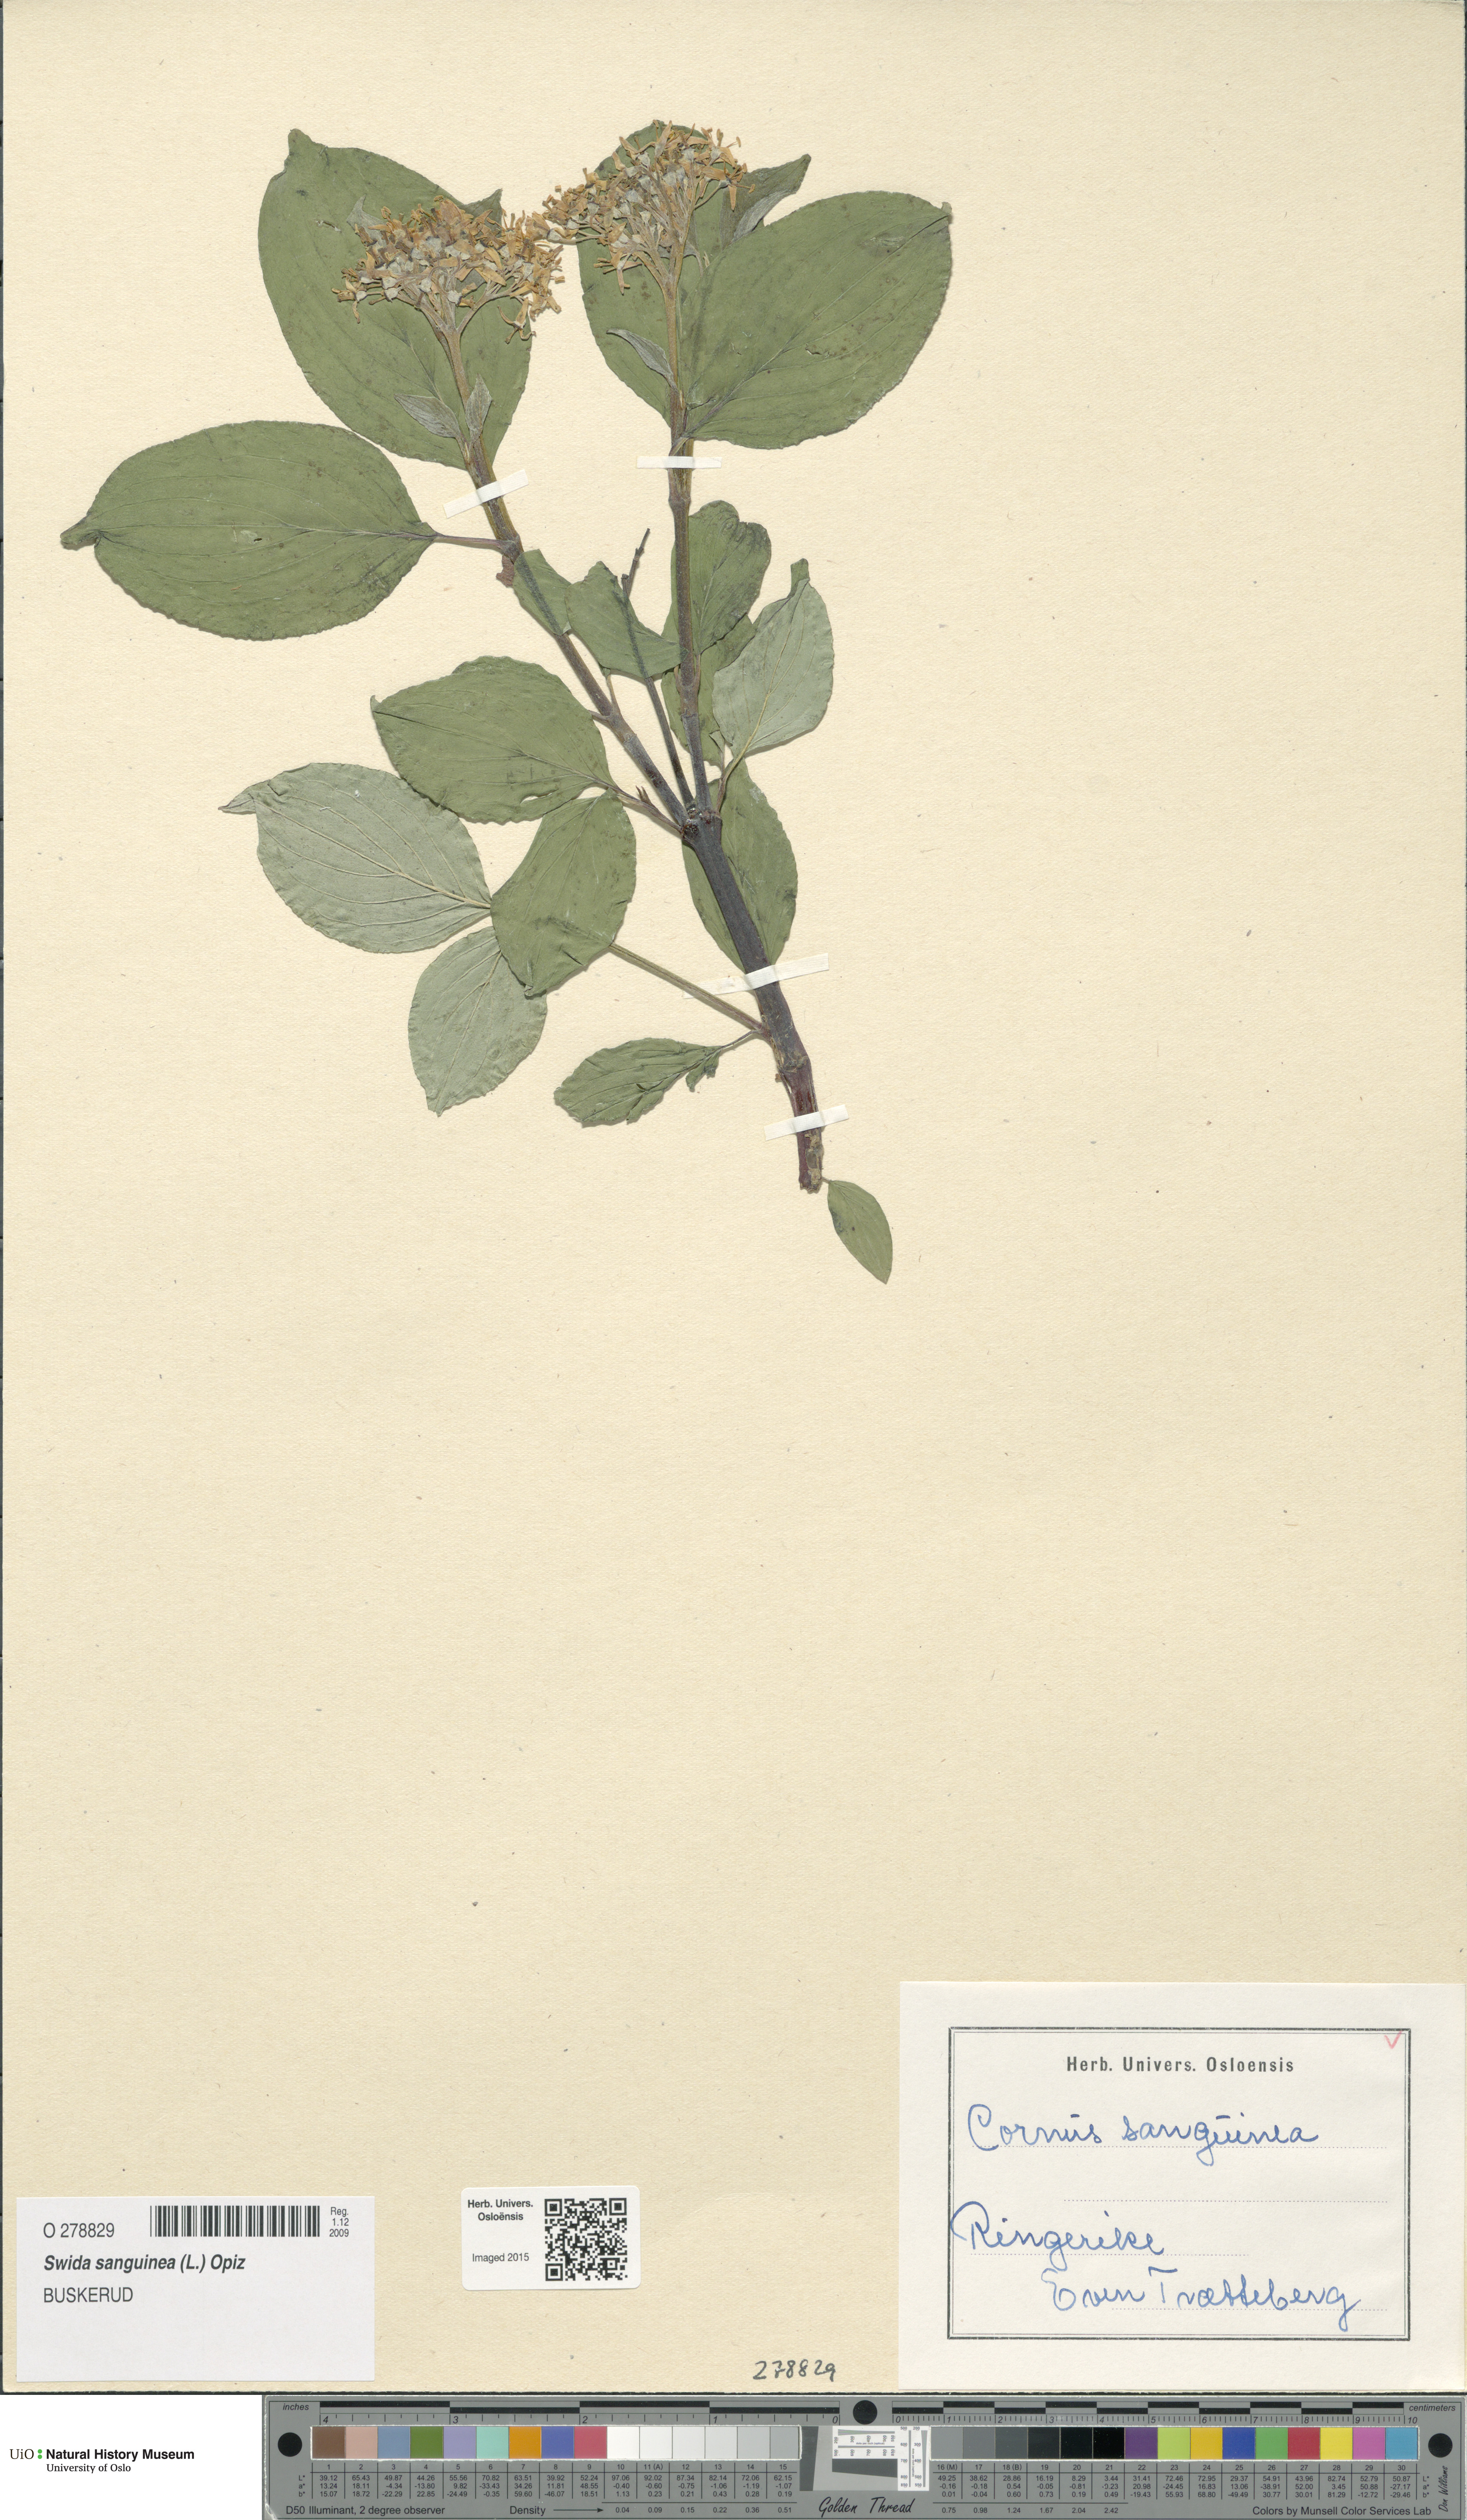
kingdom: Plantae
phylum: Tracheophyta
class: Magnoliopsida
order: Cornales
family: Cornaceae
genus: Cornus
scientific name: Cornus sanguinea
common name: Dogwood
